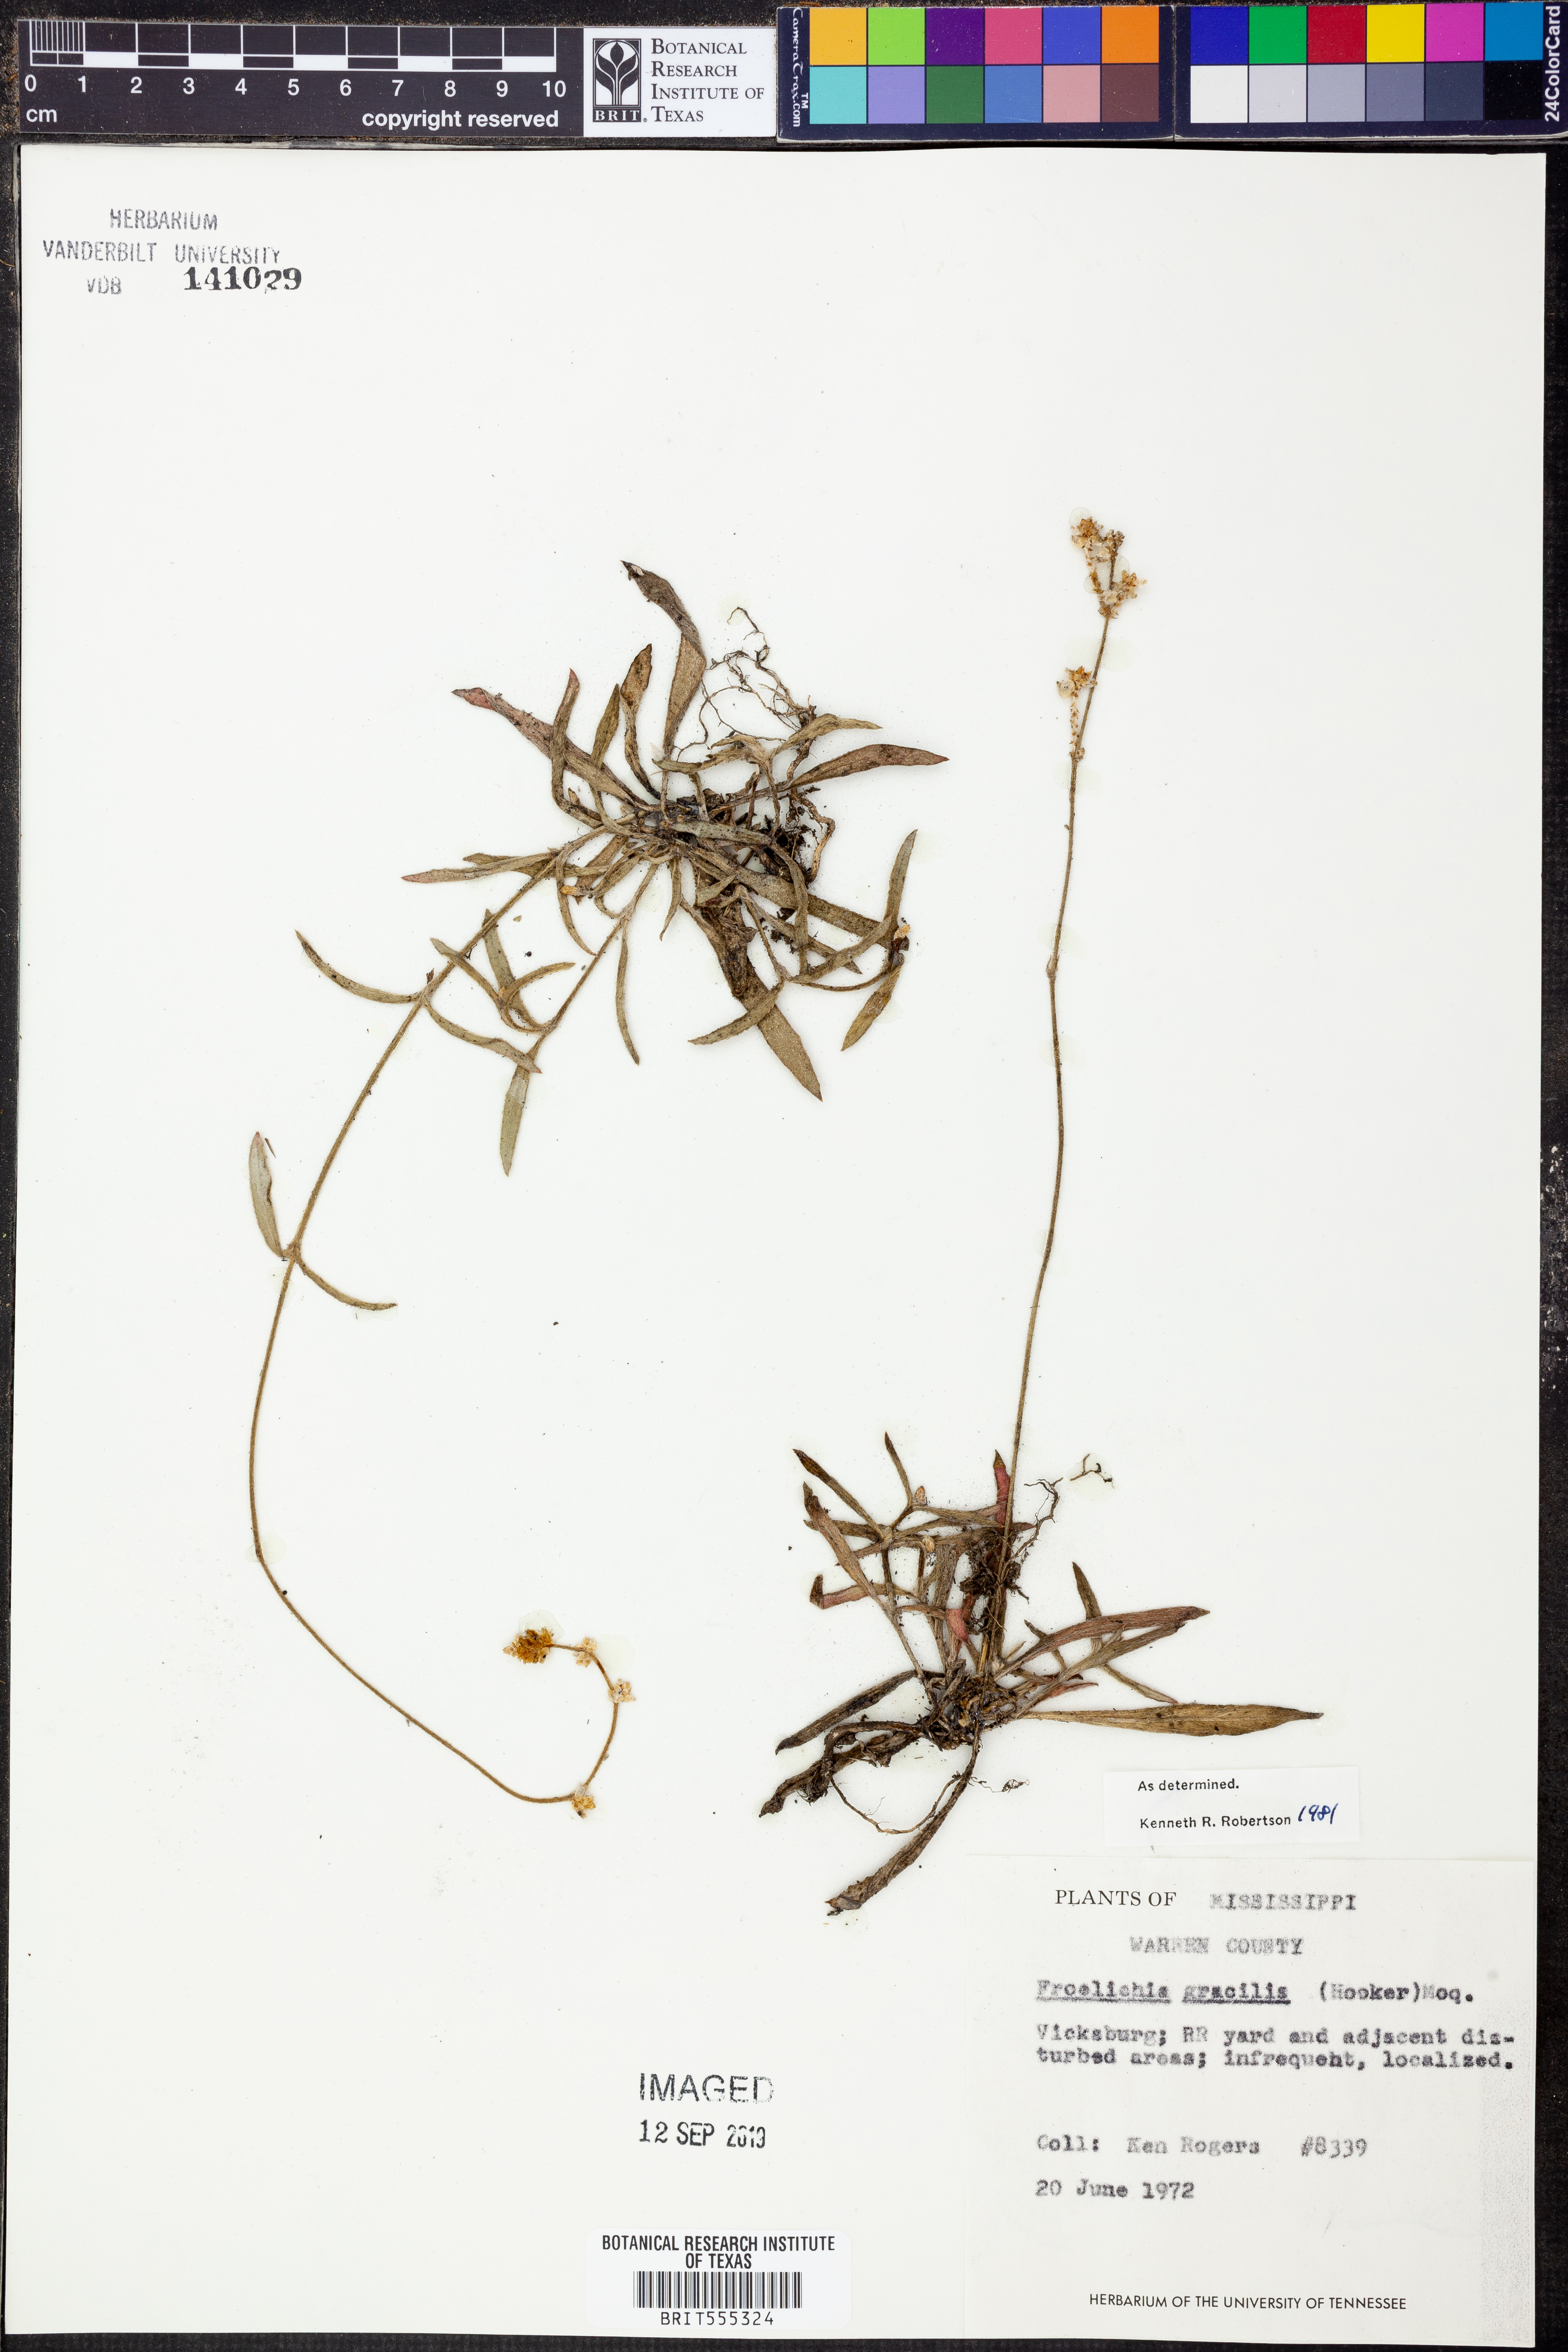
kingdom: Plantae
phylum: Tracheophyta
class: Magnoliopsida
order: Caryophyllales
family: Amaranthaceae
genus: Froelichia
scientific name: Froelichia gracilis
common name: Slender cottonweed
